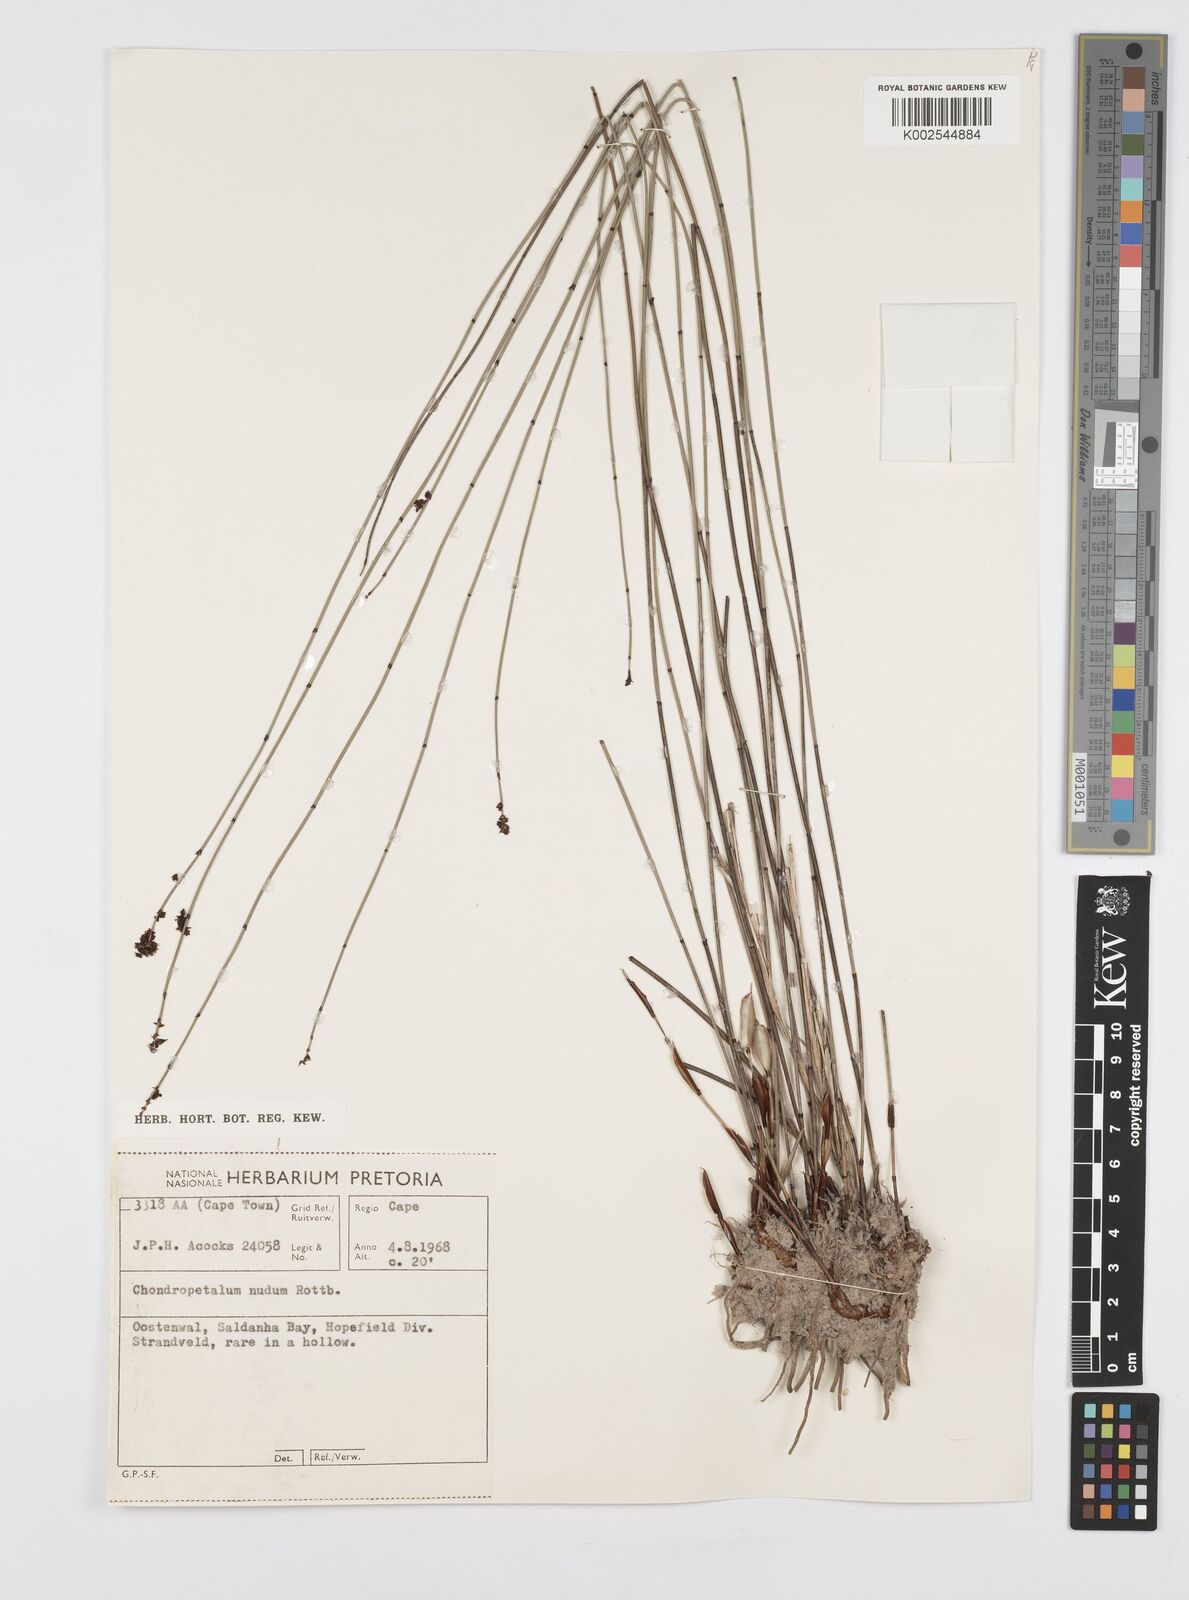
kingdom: Plantae
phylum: Tracheophyta
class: Liliopsida
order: Poales
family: Restionaceae
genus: Elegia
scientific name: Elegia nuda
